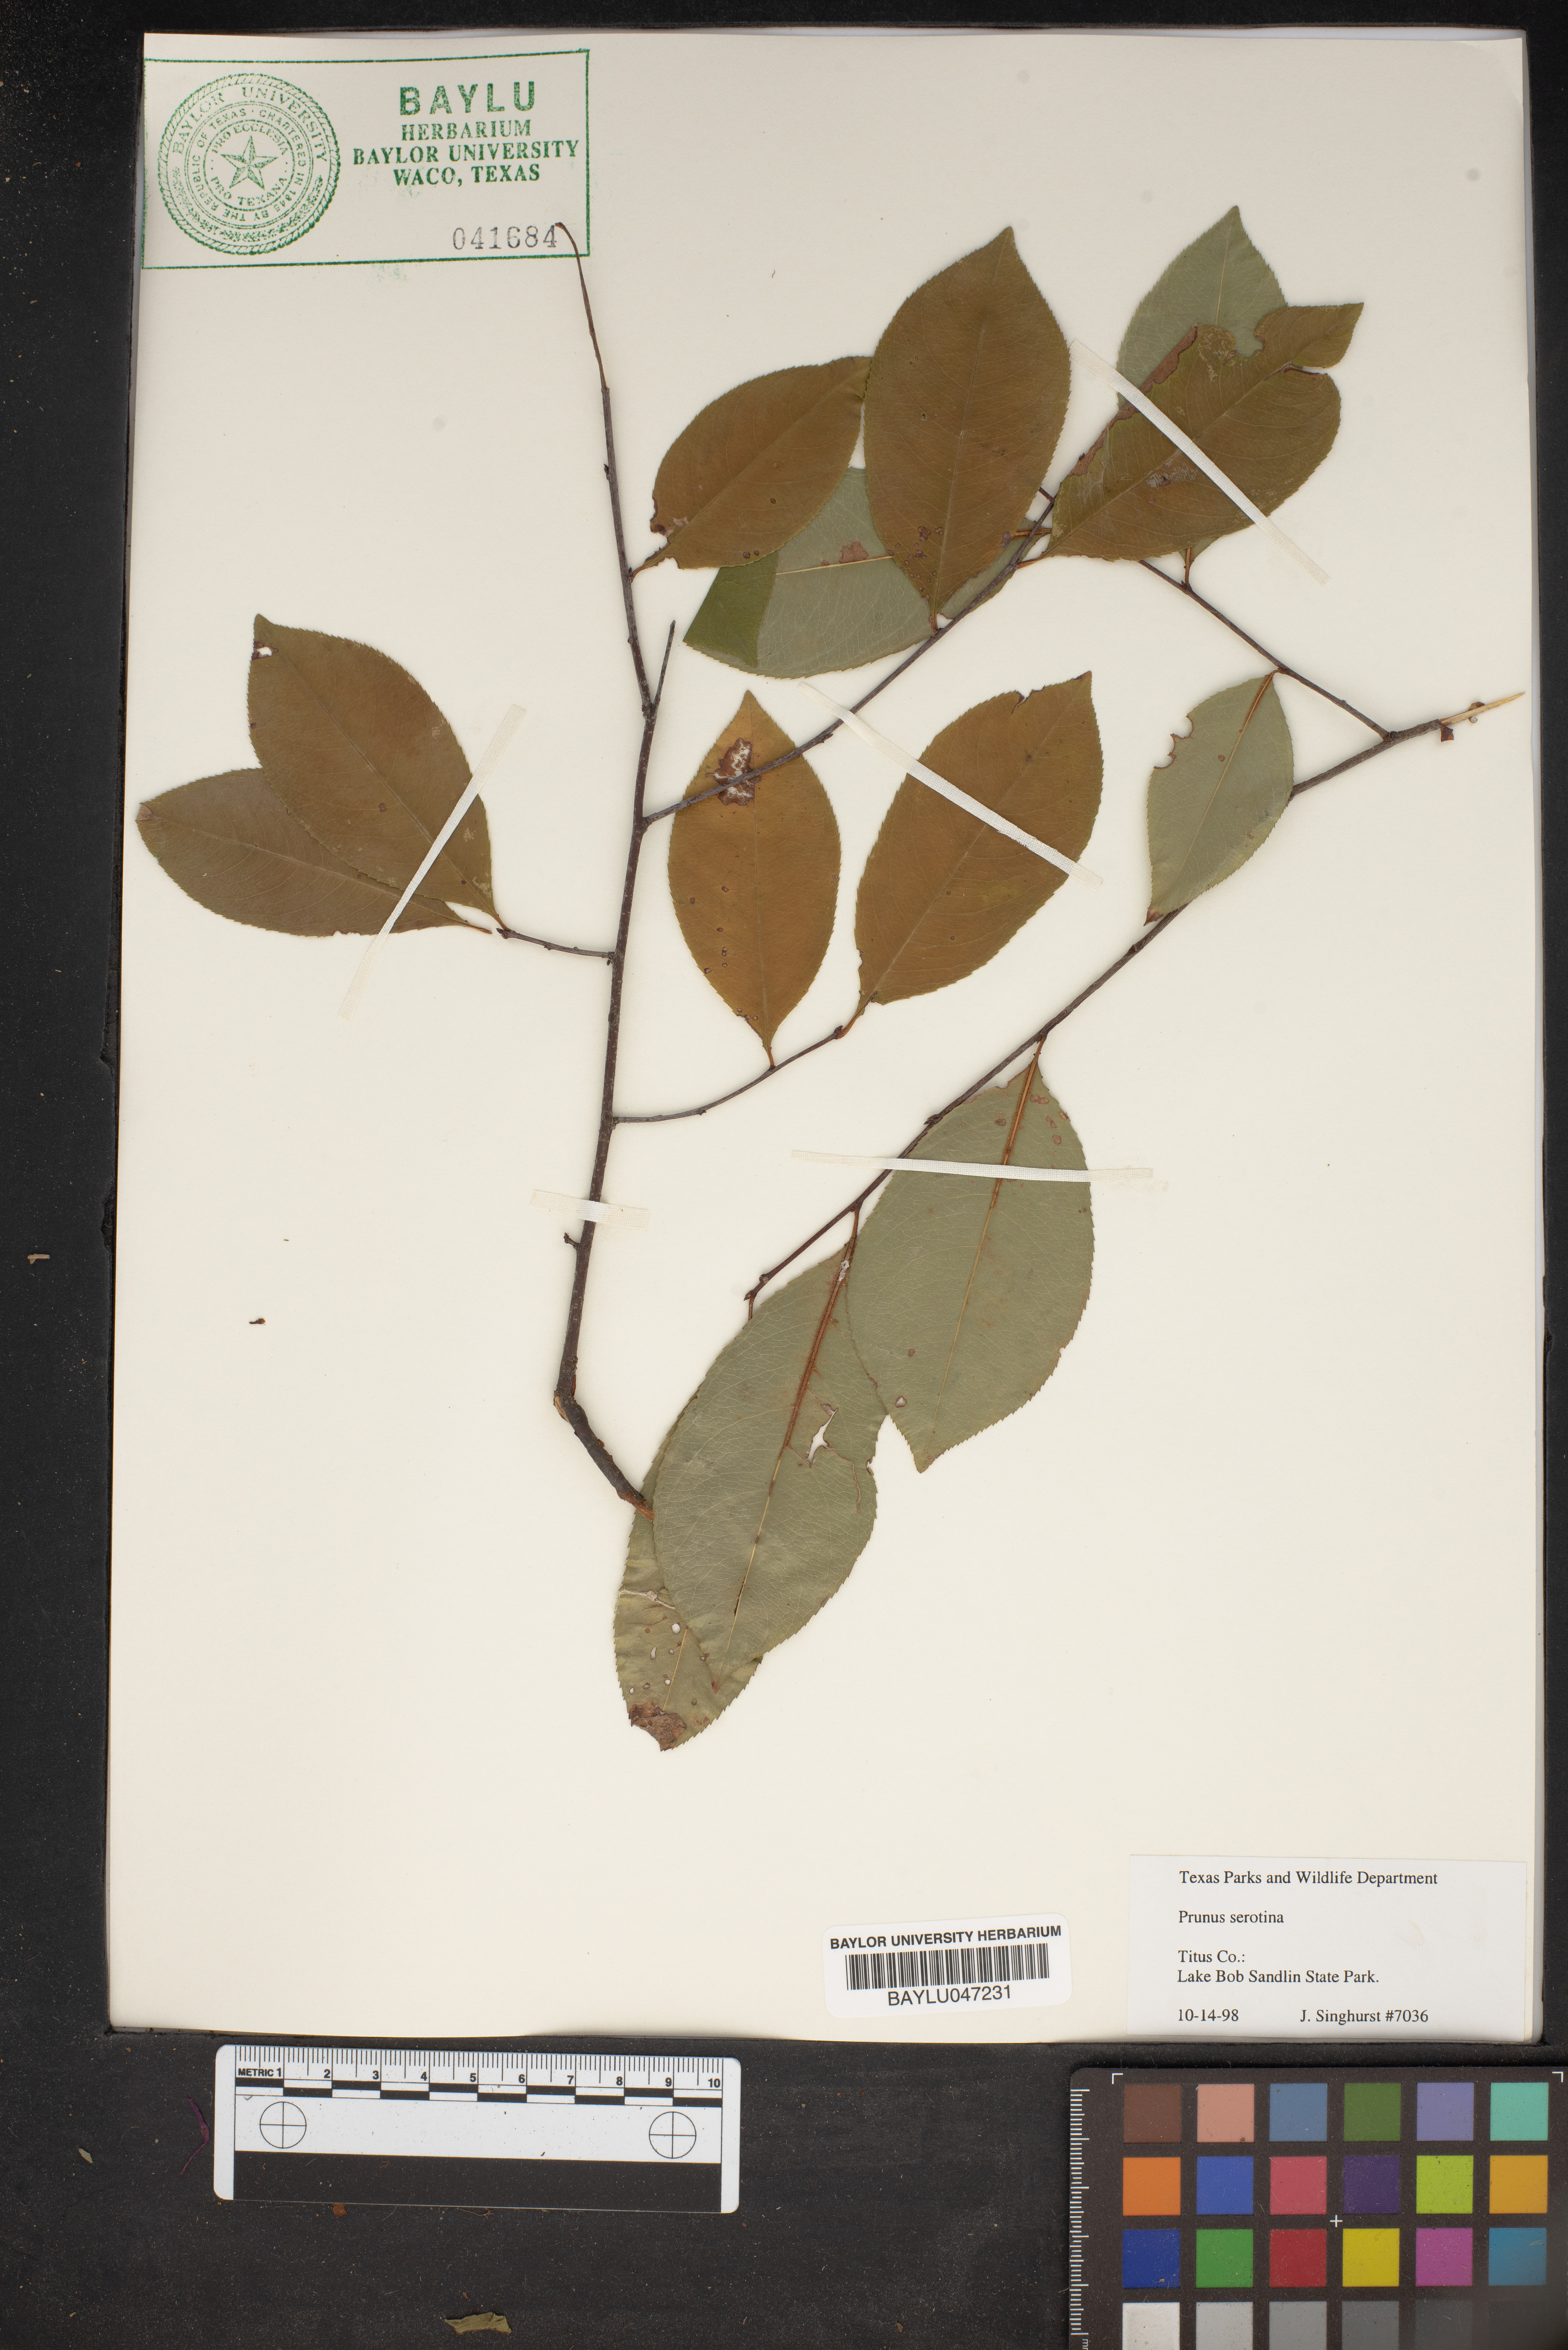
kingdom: Plantae
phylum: Tracheophyta
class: Magnoliopsida
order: Rosales
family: Rosaceae
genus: Prunus
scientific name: Prunus serotina
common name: Black cherry
